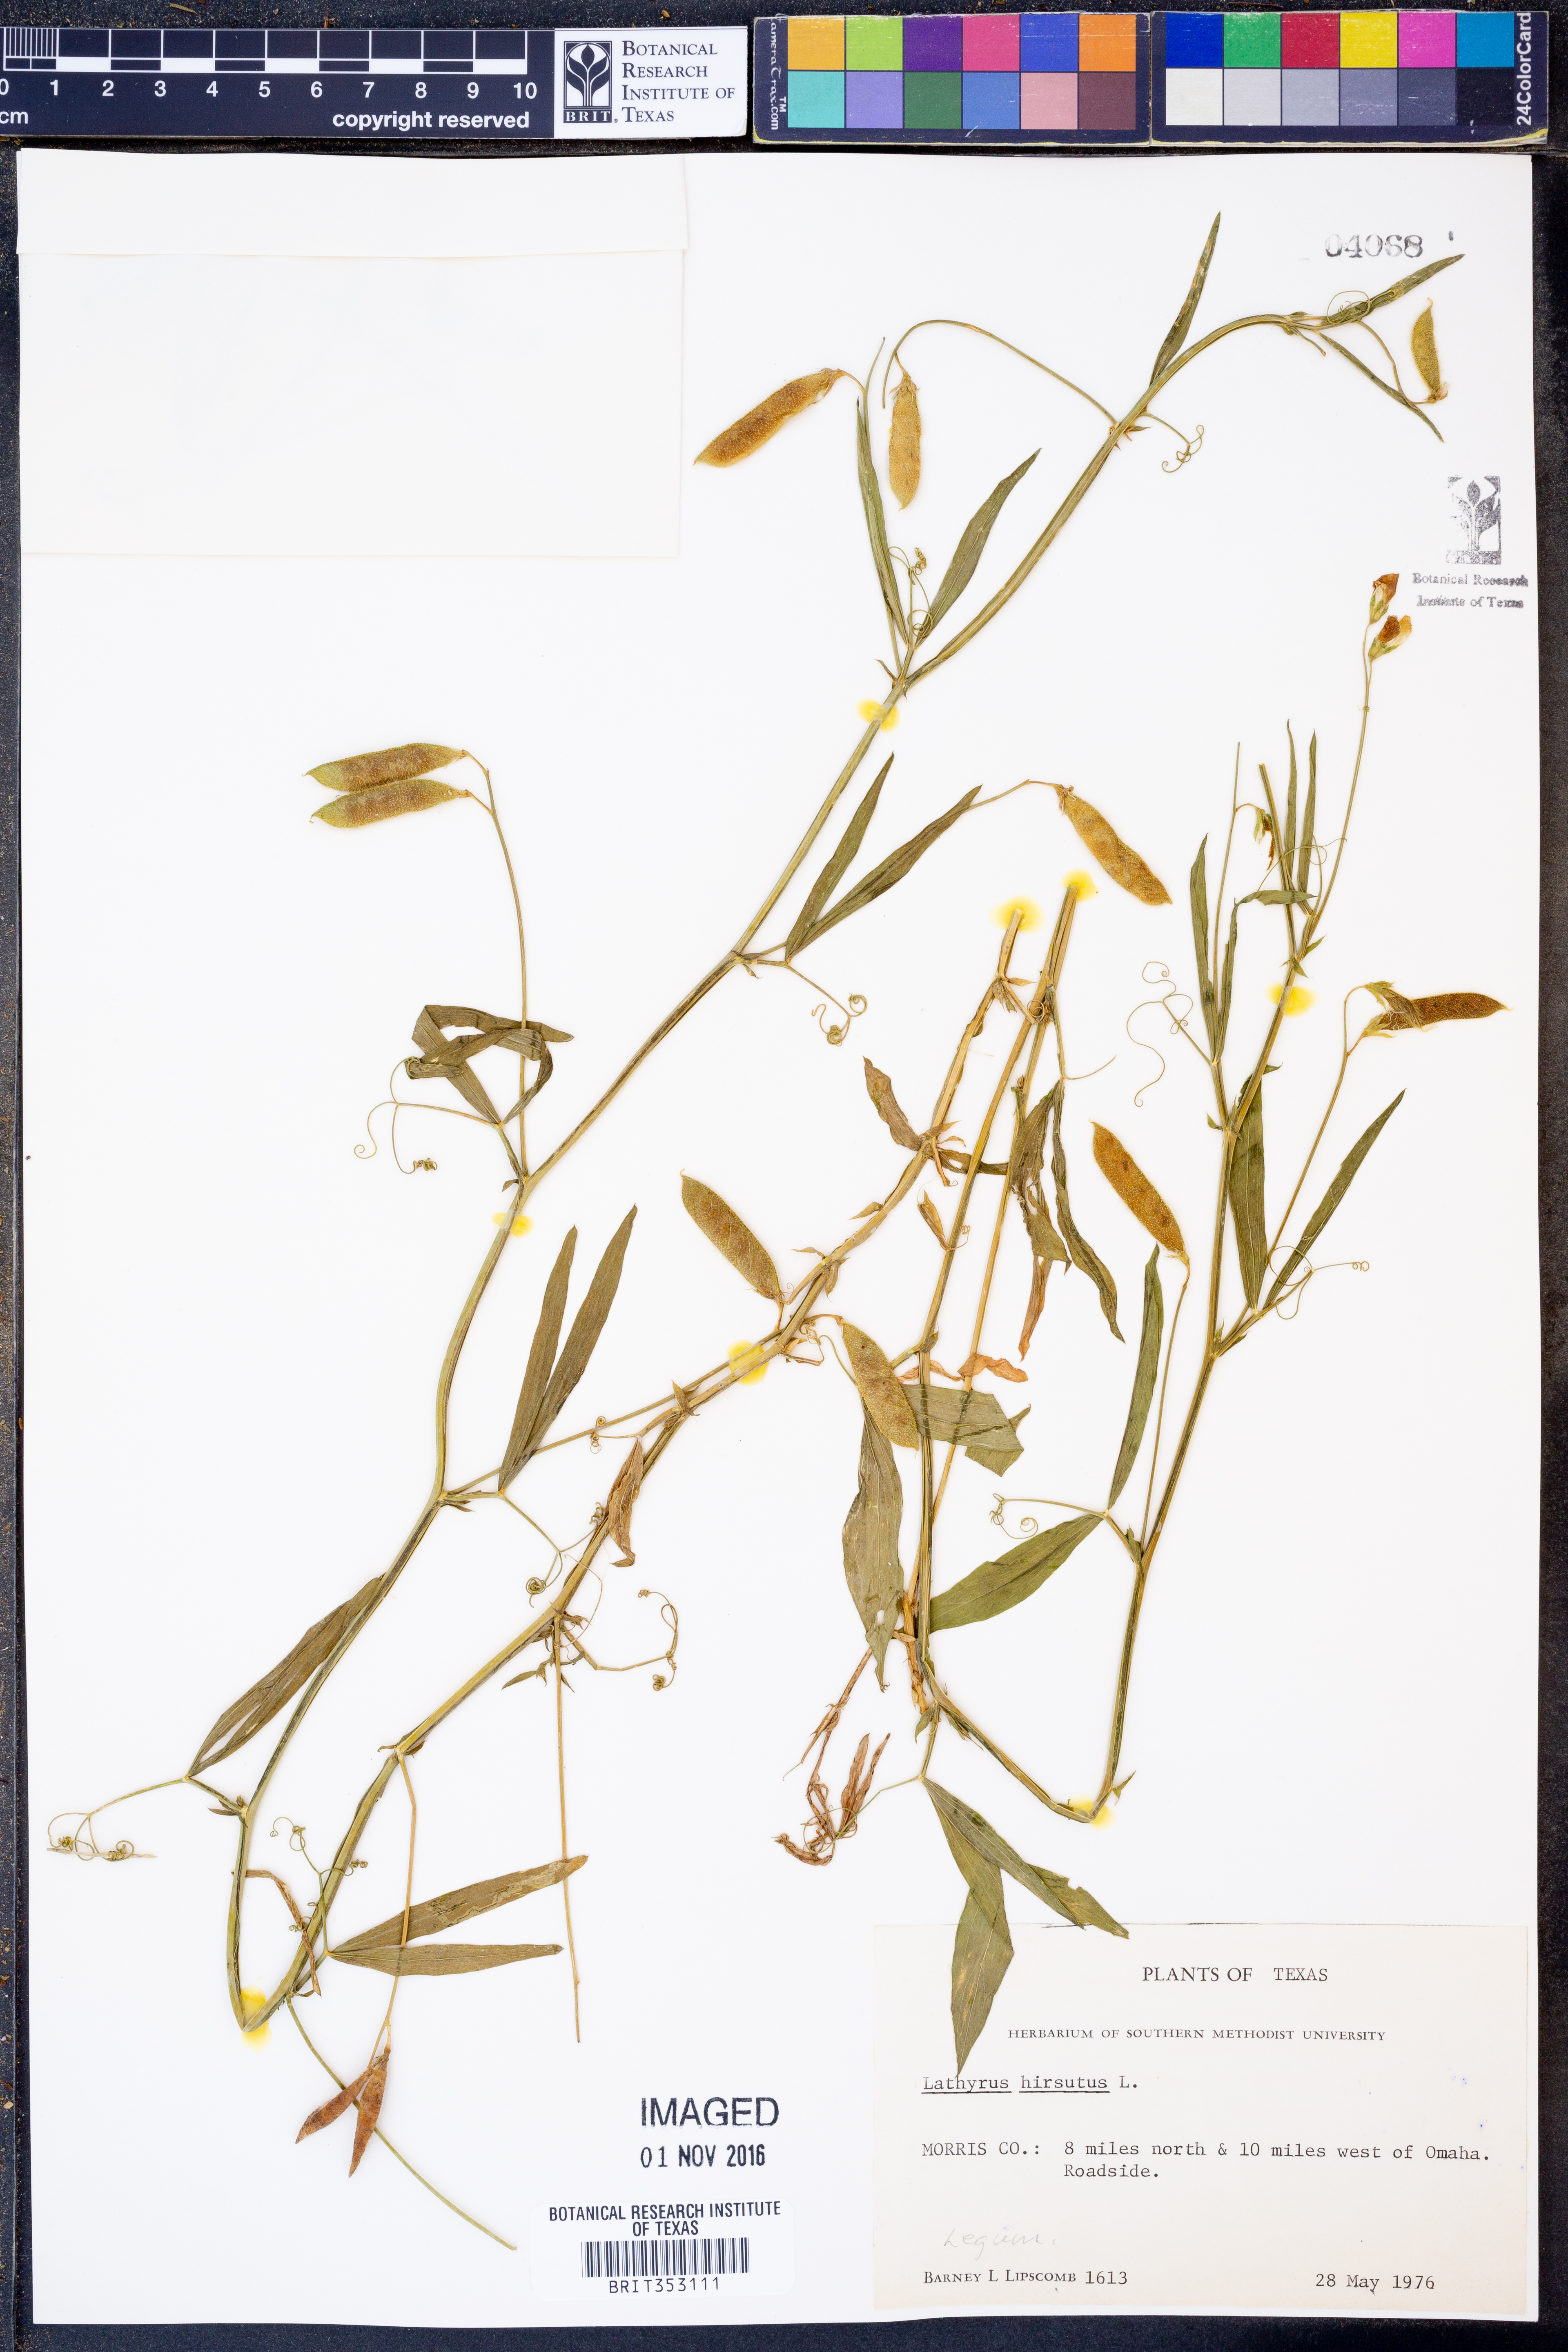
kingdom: Plantae
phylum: Tracheophyta
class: Magnoliopsida
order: Fabales
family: Fabaceae
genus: Lathyrus
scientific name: Lathyrus hirsutus
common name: Hairy vetchling
